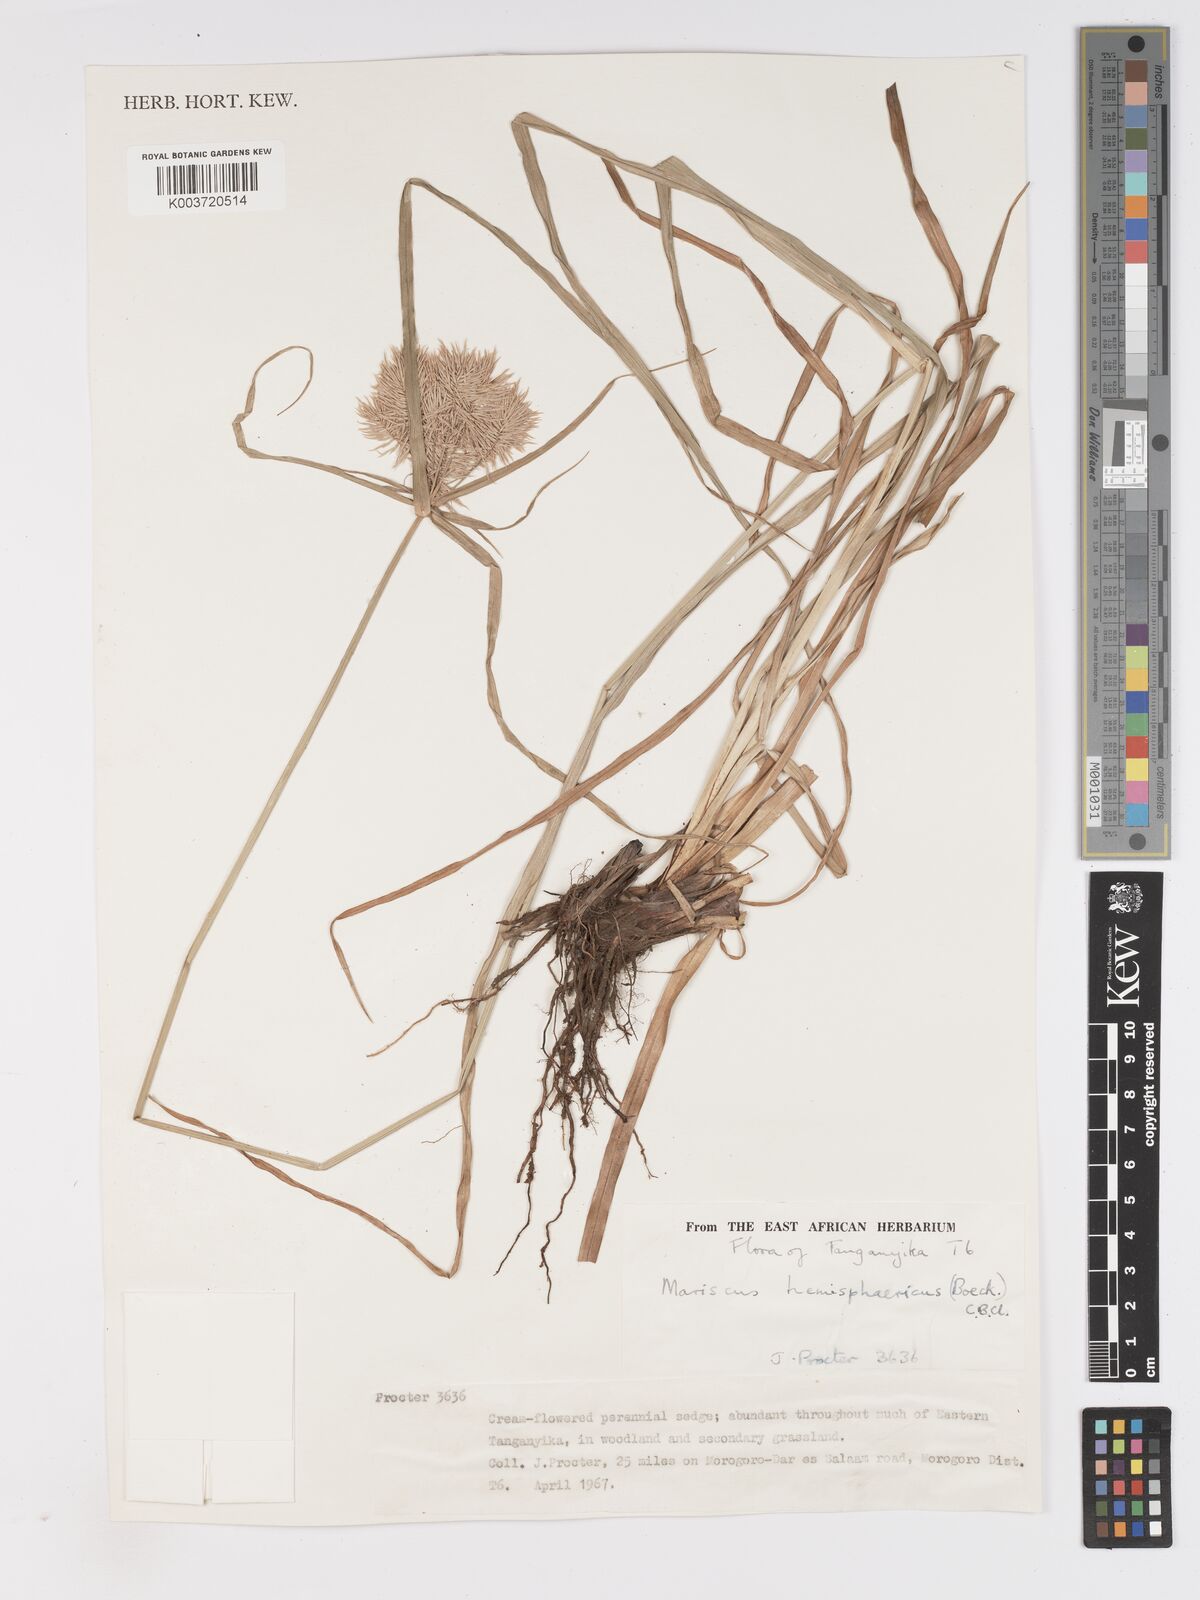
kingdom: Plantae
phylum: Tracheophyta
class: Liliopsida
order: Poales
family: Cyperaceae
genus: Cyperus
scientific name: Cyperus hemisphaericus
